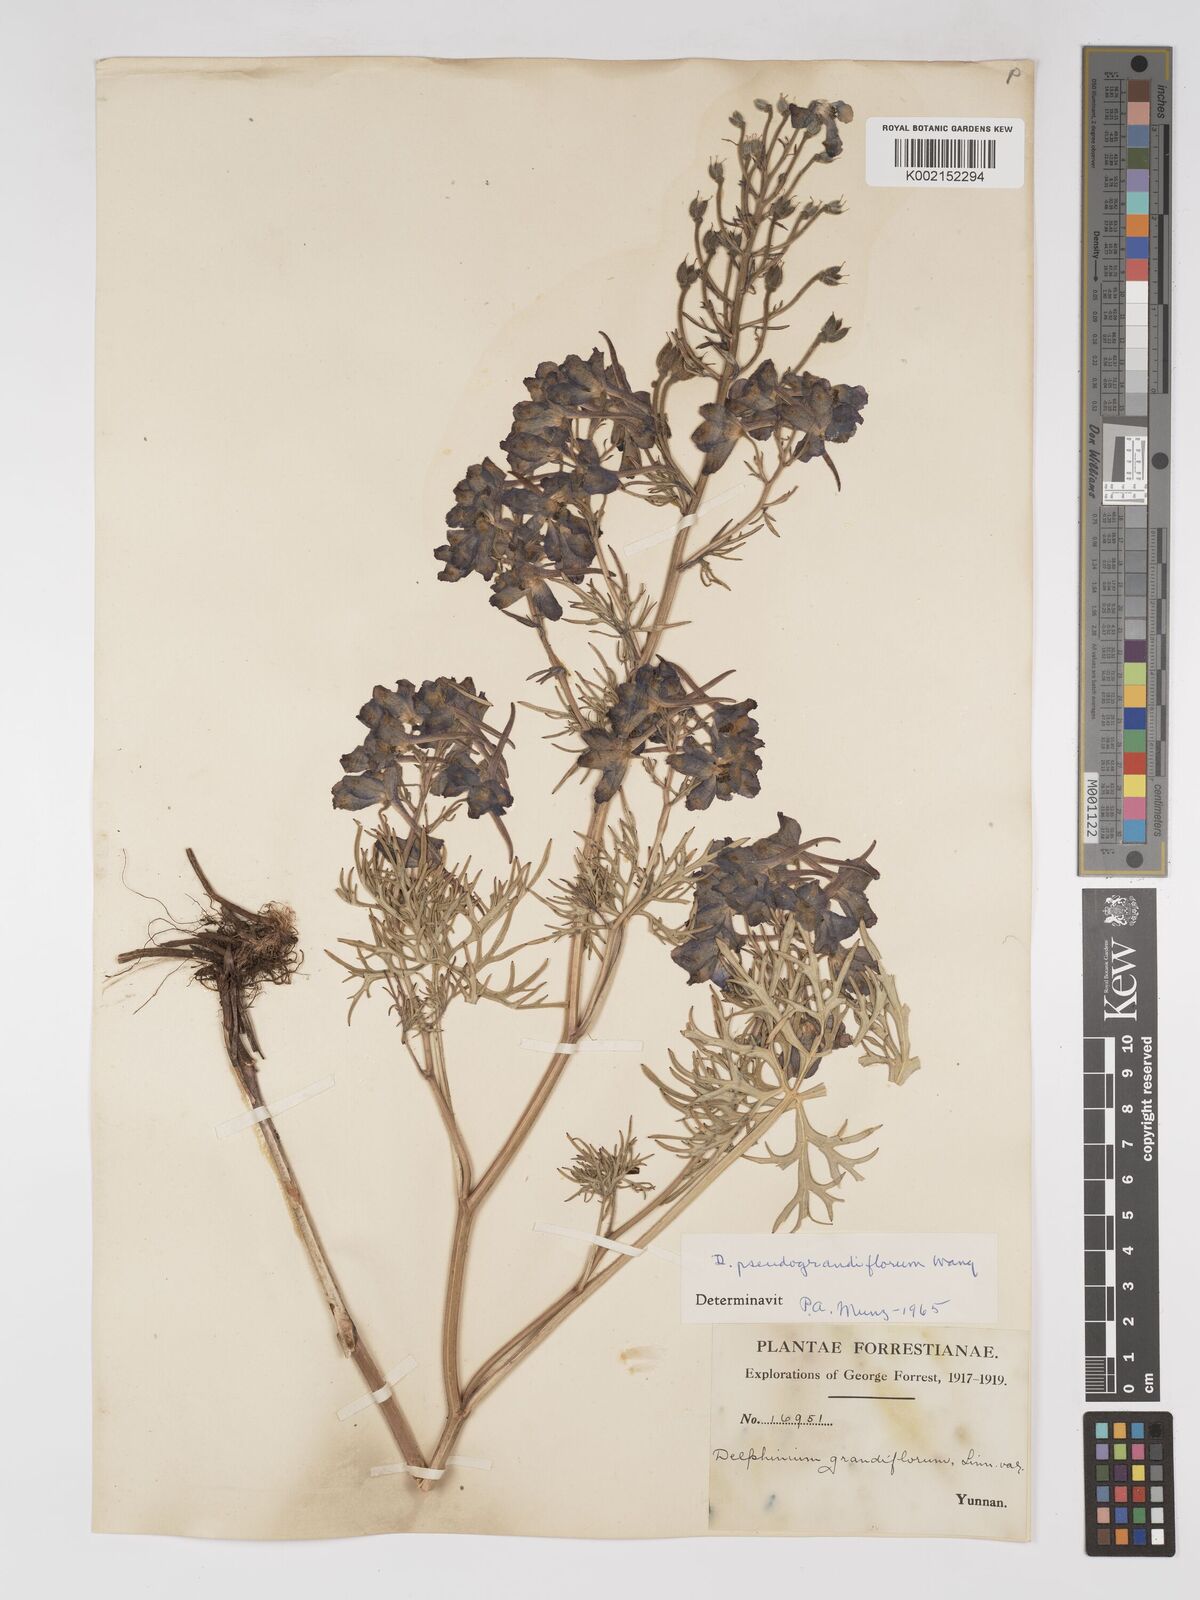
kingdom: Plantae
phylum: Tracheophyta
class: Magnoliopsida
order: Ranunculales
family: Ranunculaceae
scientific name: Ranunculaceae
